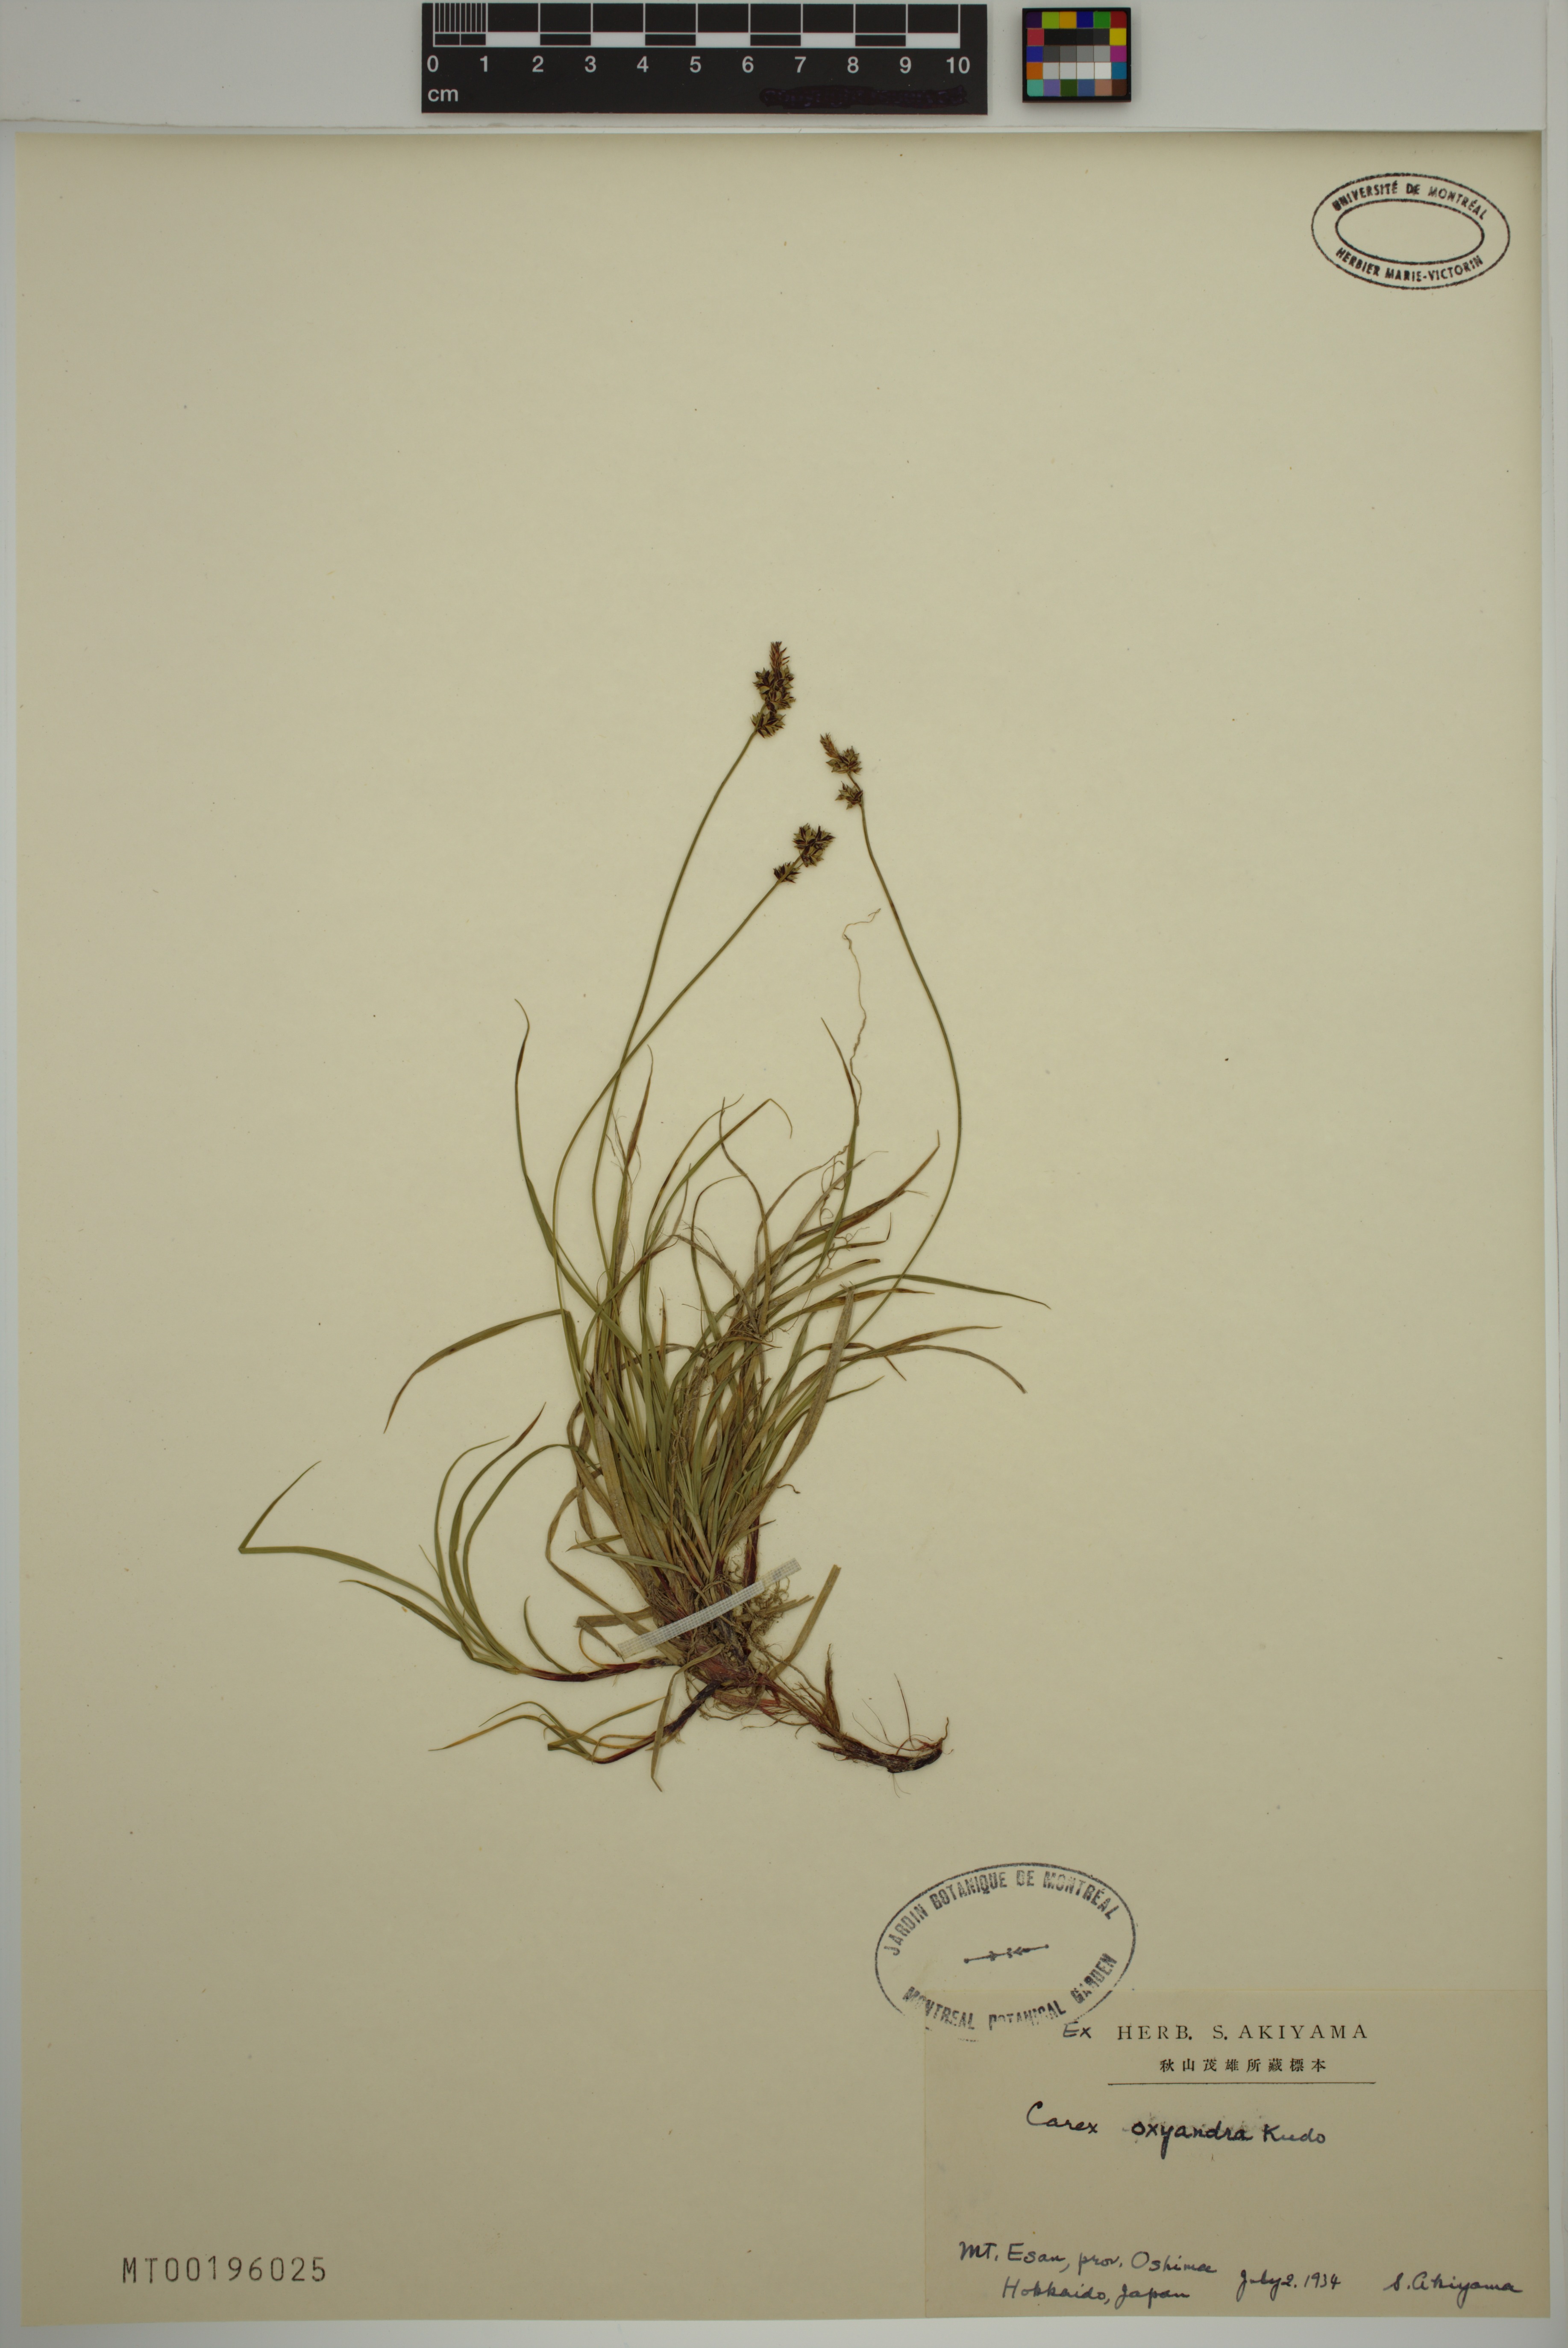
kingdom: Plantae
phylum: Tracheophyta
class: Liliopsida
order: Poales
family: Cyperaceae
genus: Carex
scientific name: Carex oxyandra
